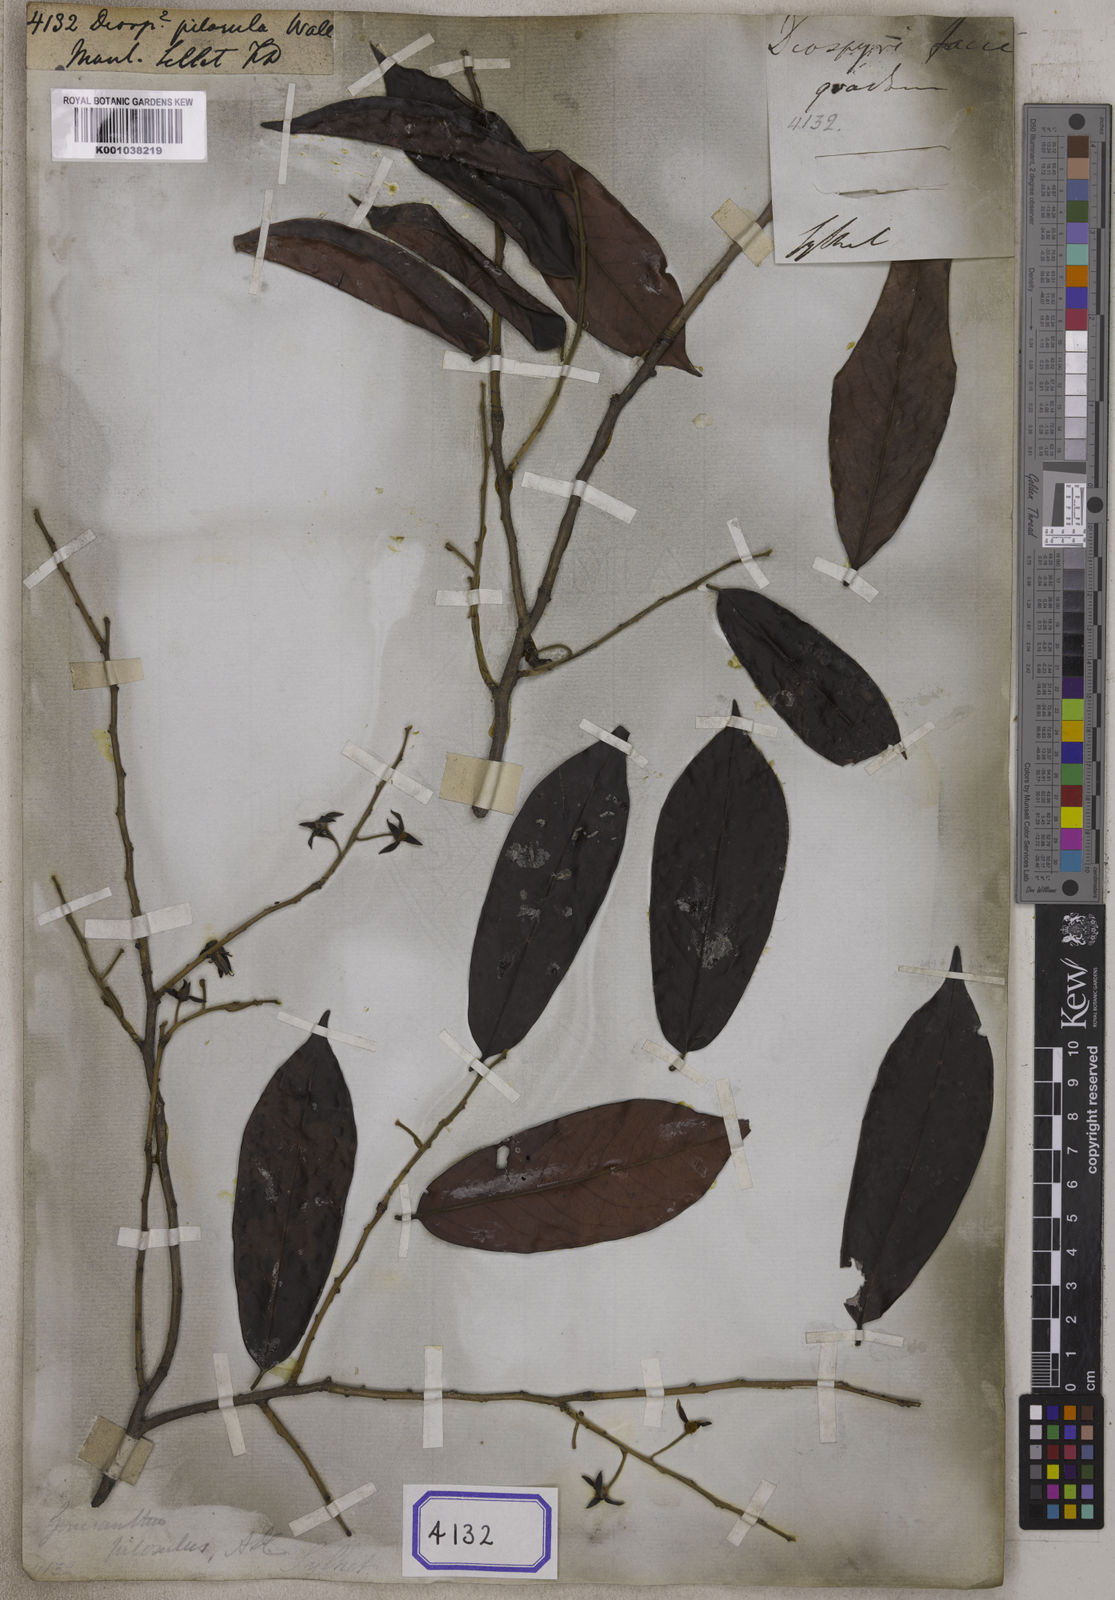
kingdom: Plantae
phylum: Tracheophyta
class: Magnoliopsida
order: Ericales
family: Ebenaceae
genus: Diospyros
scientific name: Diospyros
